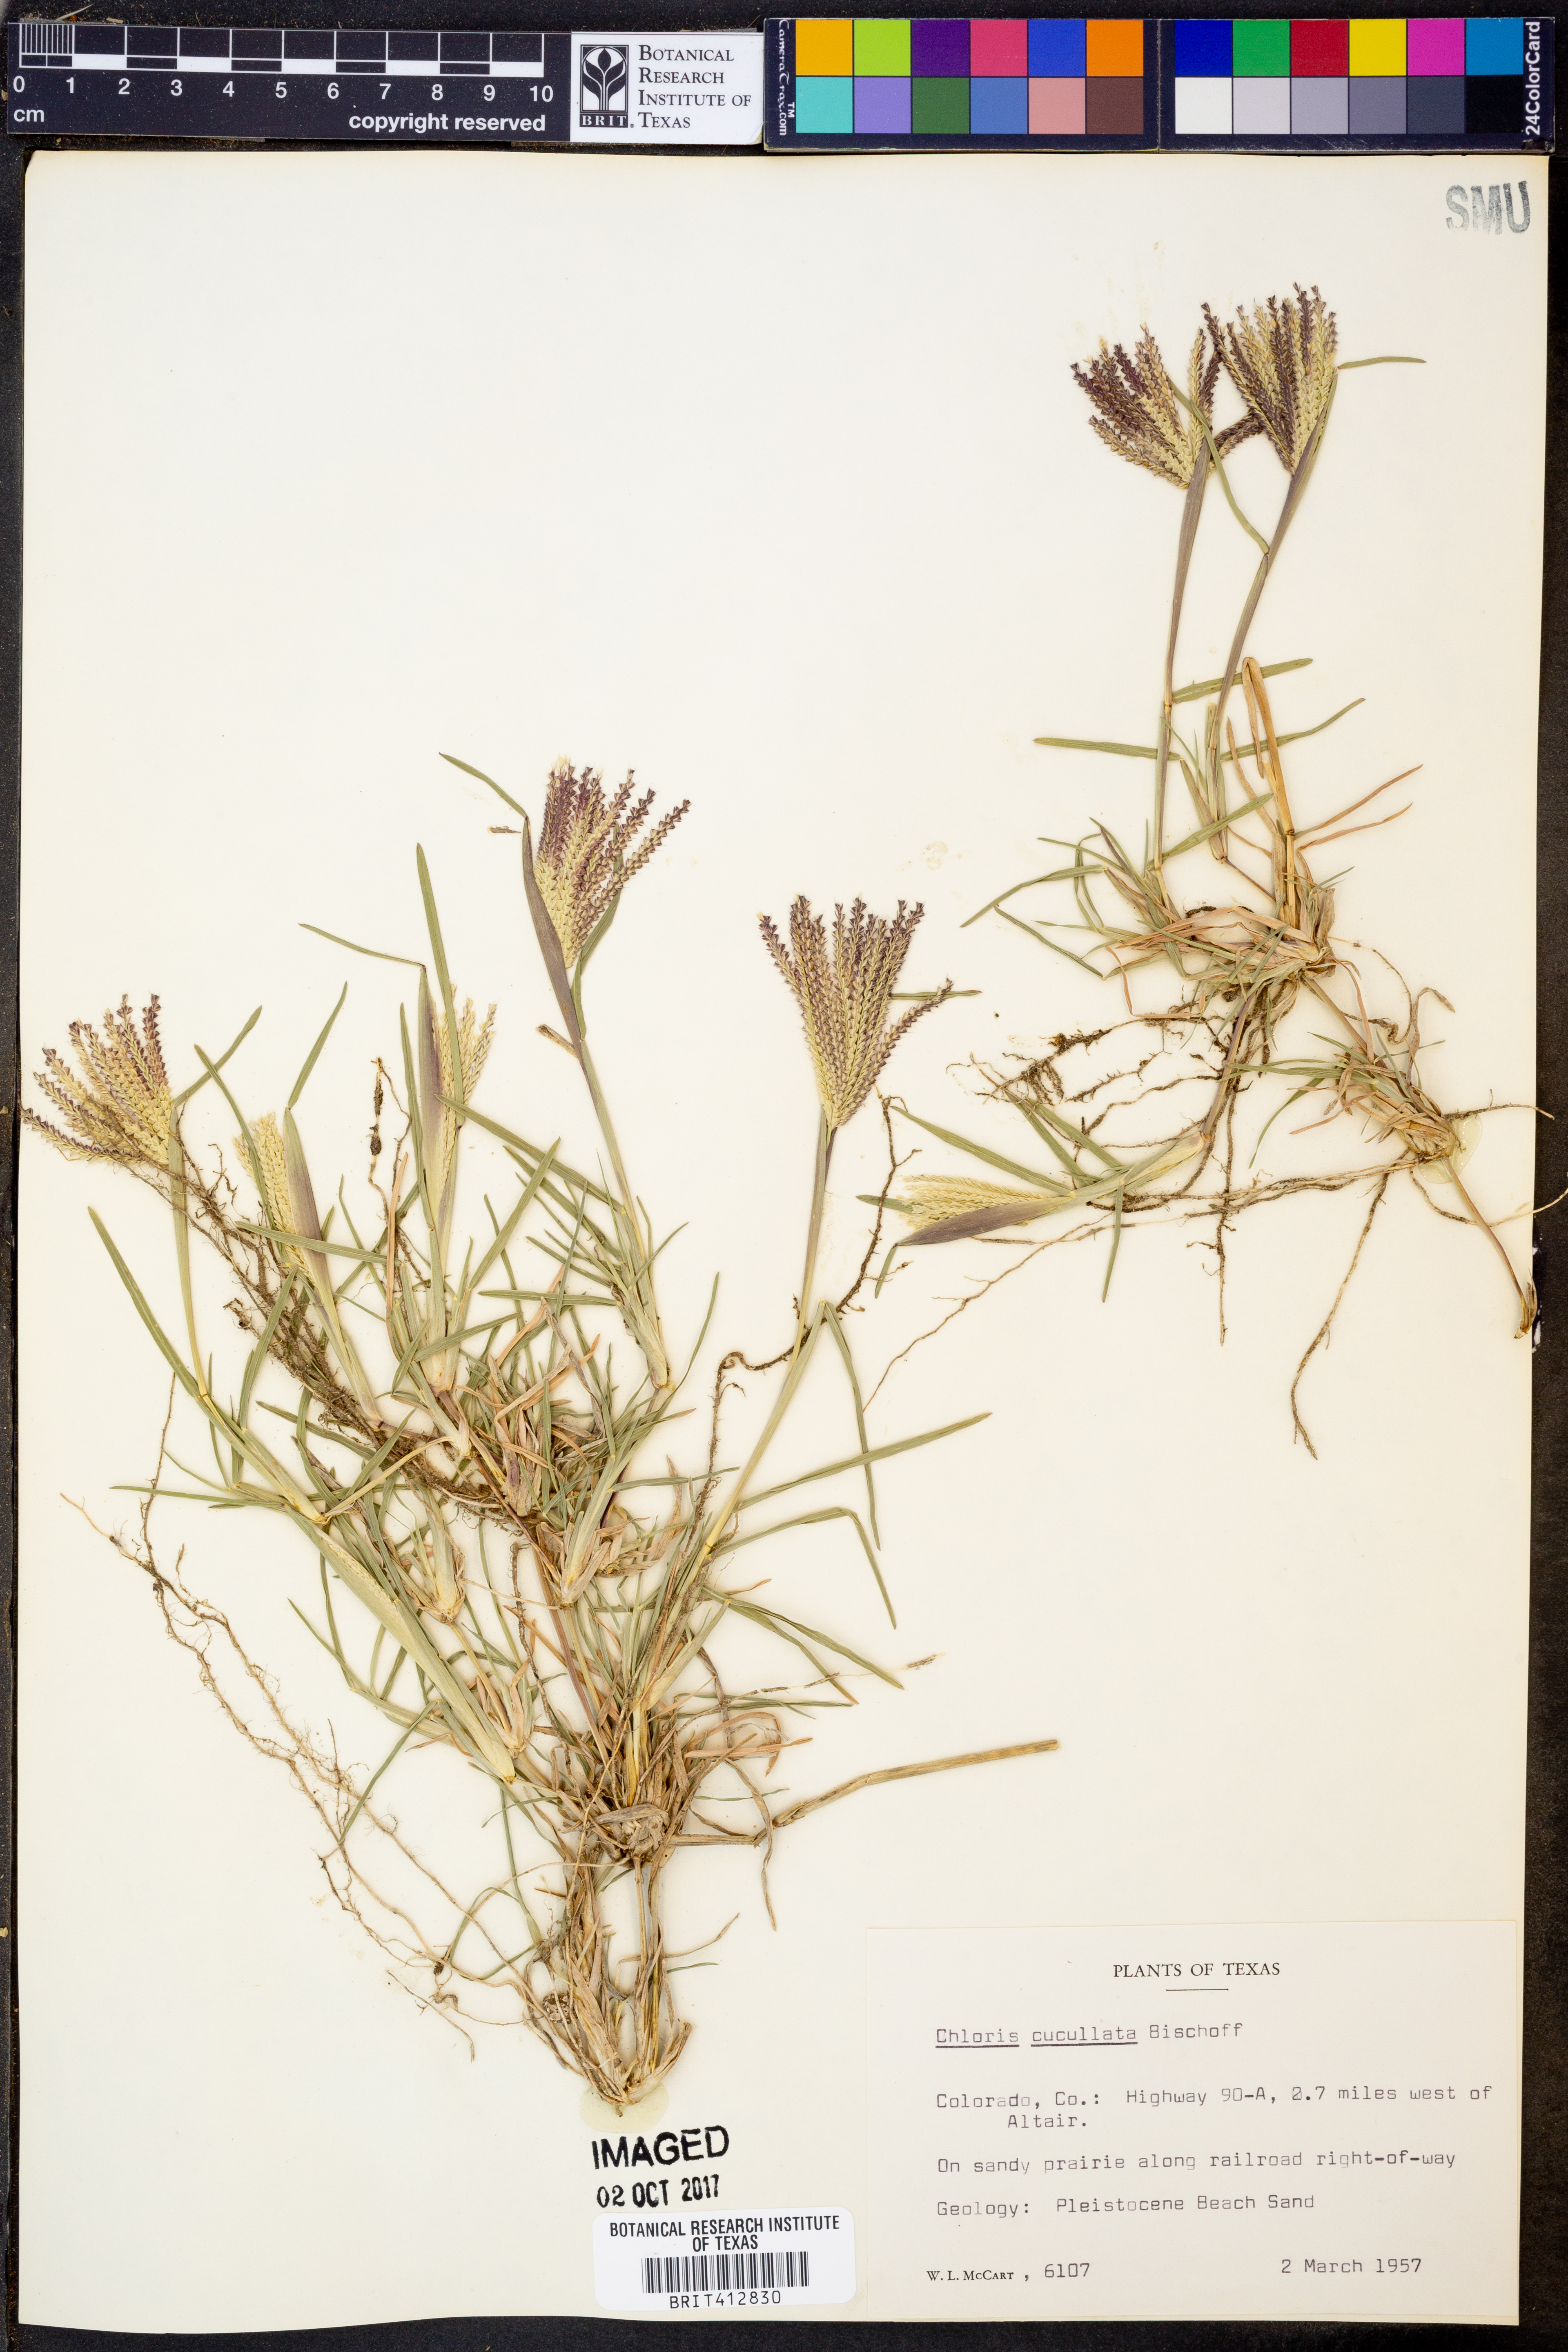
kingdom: Plantae
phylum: Tracheophyta
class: Liliopsida
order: Poales
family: Poaceae
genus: Chloris
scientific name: Chloris cucullata
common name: Hooded windmill grass
